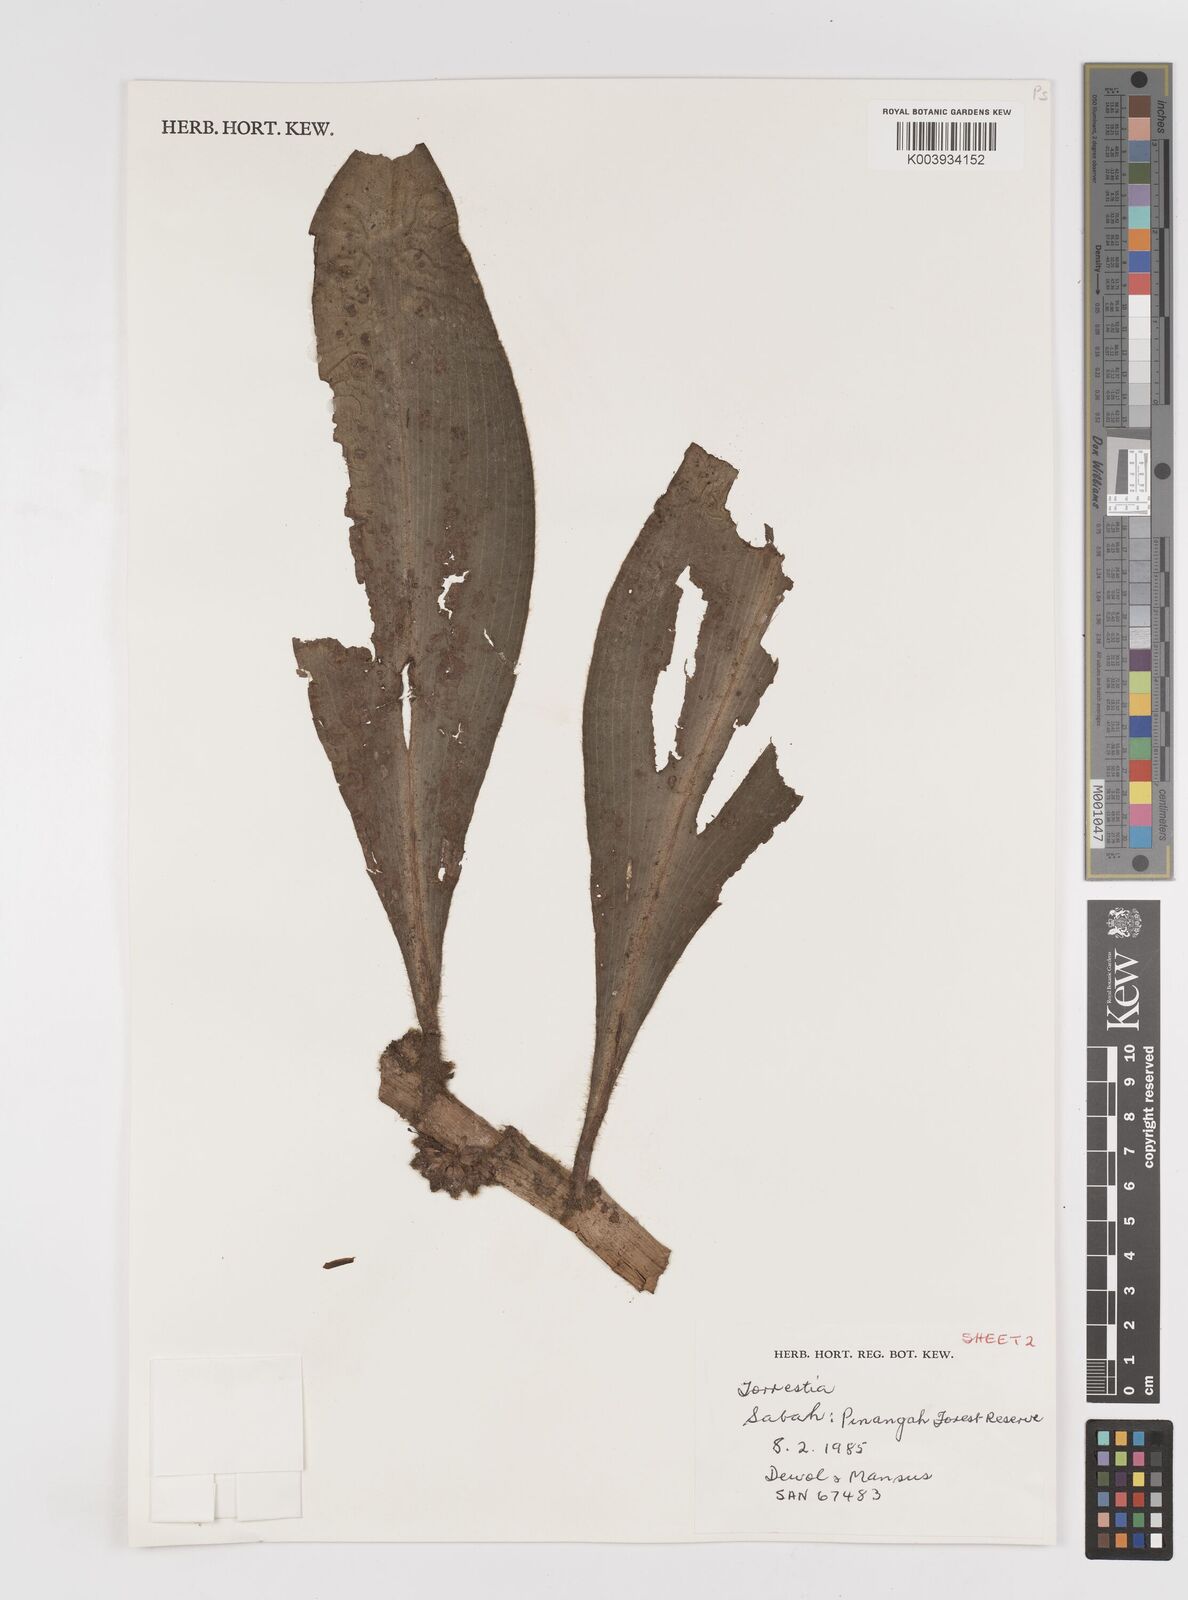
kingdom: Plantae
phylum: Tracheophyta
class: Liliopsida
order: Commelinales
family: Commelinaceae
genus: Amischotolype
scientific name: Amischotolype
